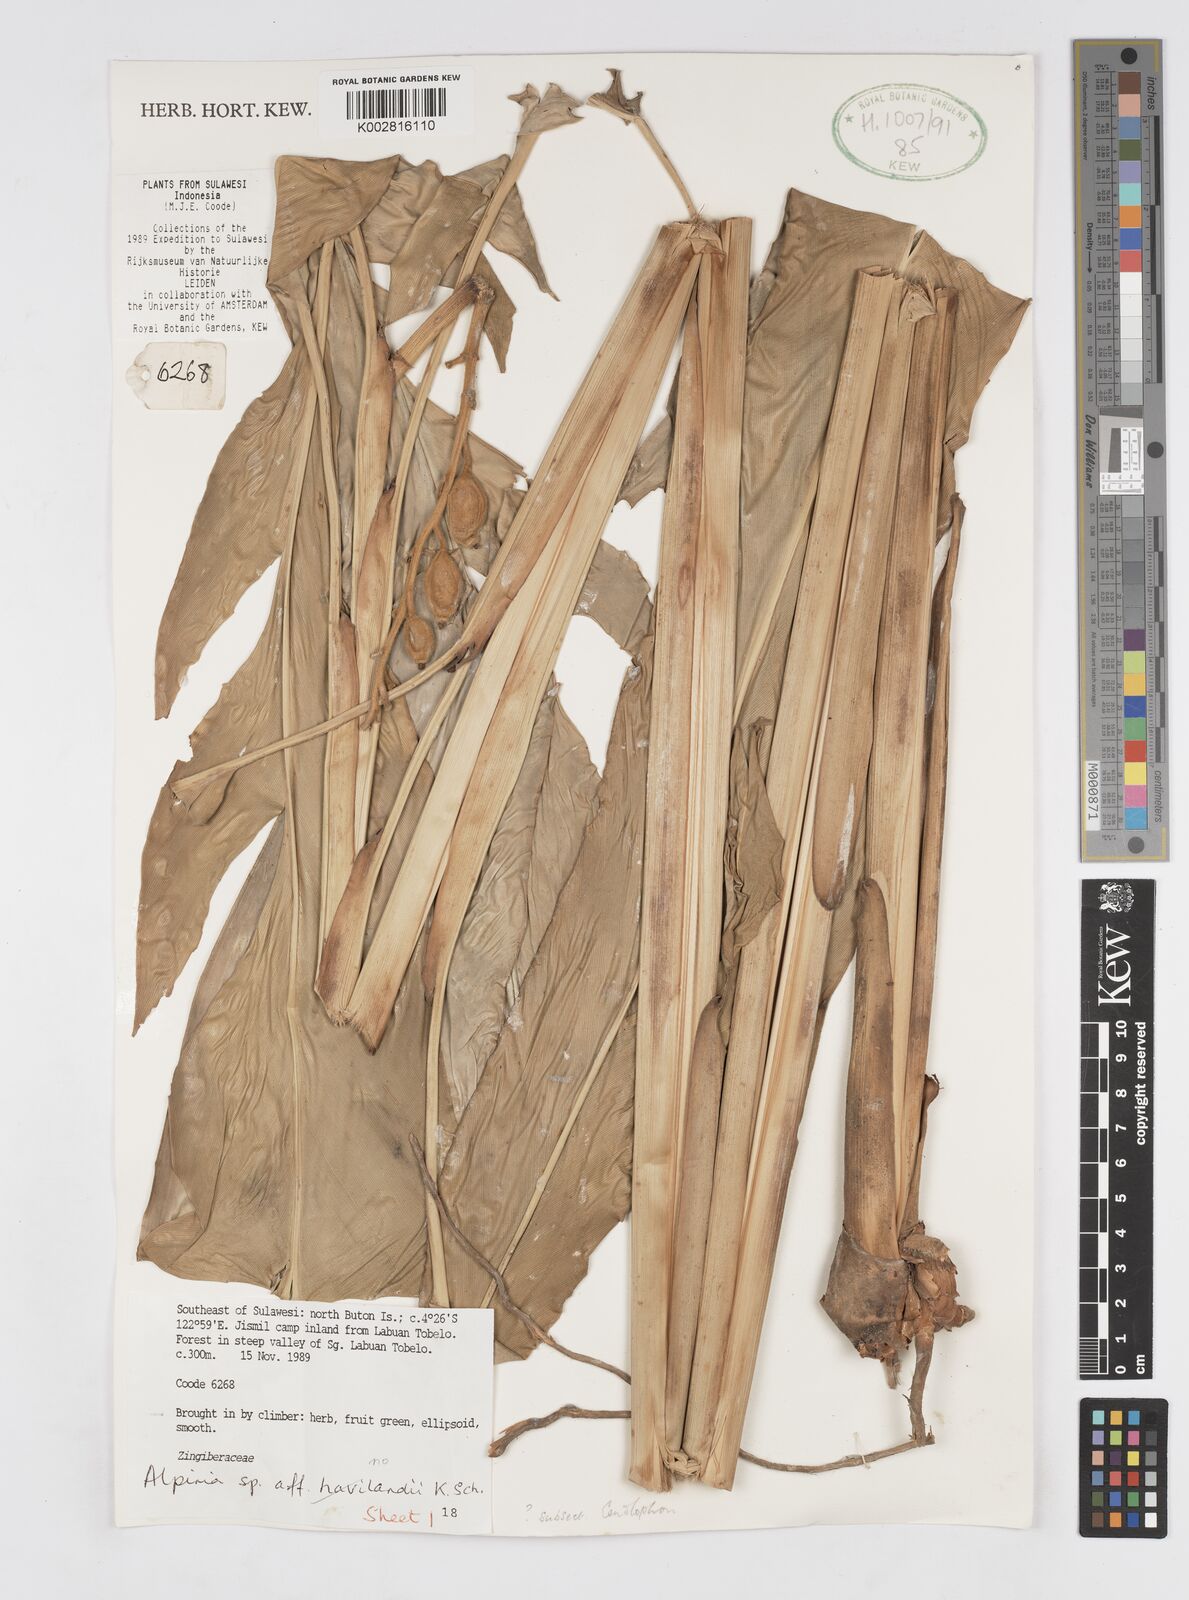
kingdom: Plantae
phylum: Tracheophyta
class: Liliopsida
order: Zingiberales
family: Zingiberaceae
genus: Alpinia
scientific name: Alpinia
